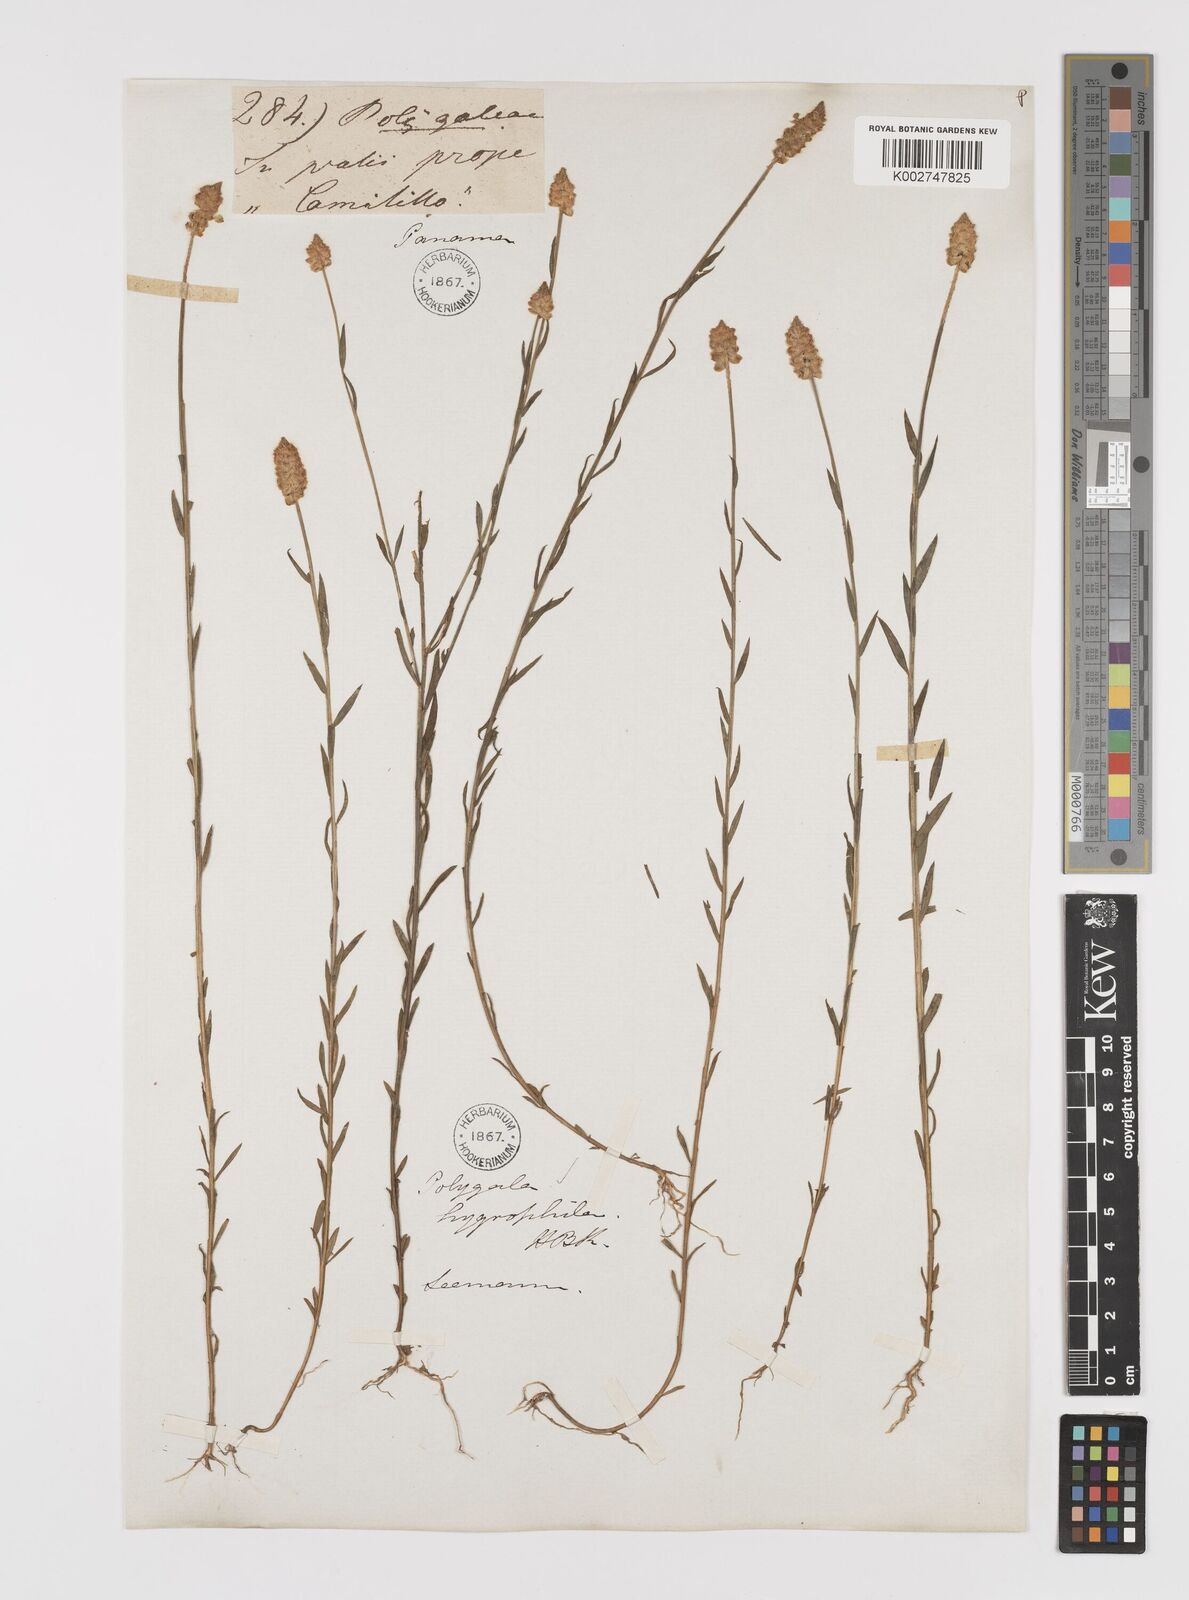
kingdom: Plantae
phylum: Tracheophyta
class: Magnoliopsida
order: Fabales
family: Polygalaceae
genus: Polygala
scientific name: Polygala hygrophila
